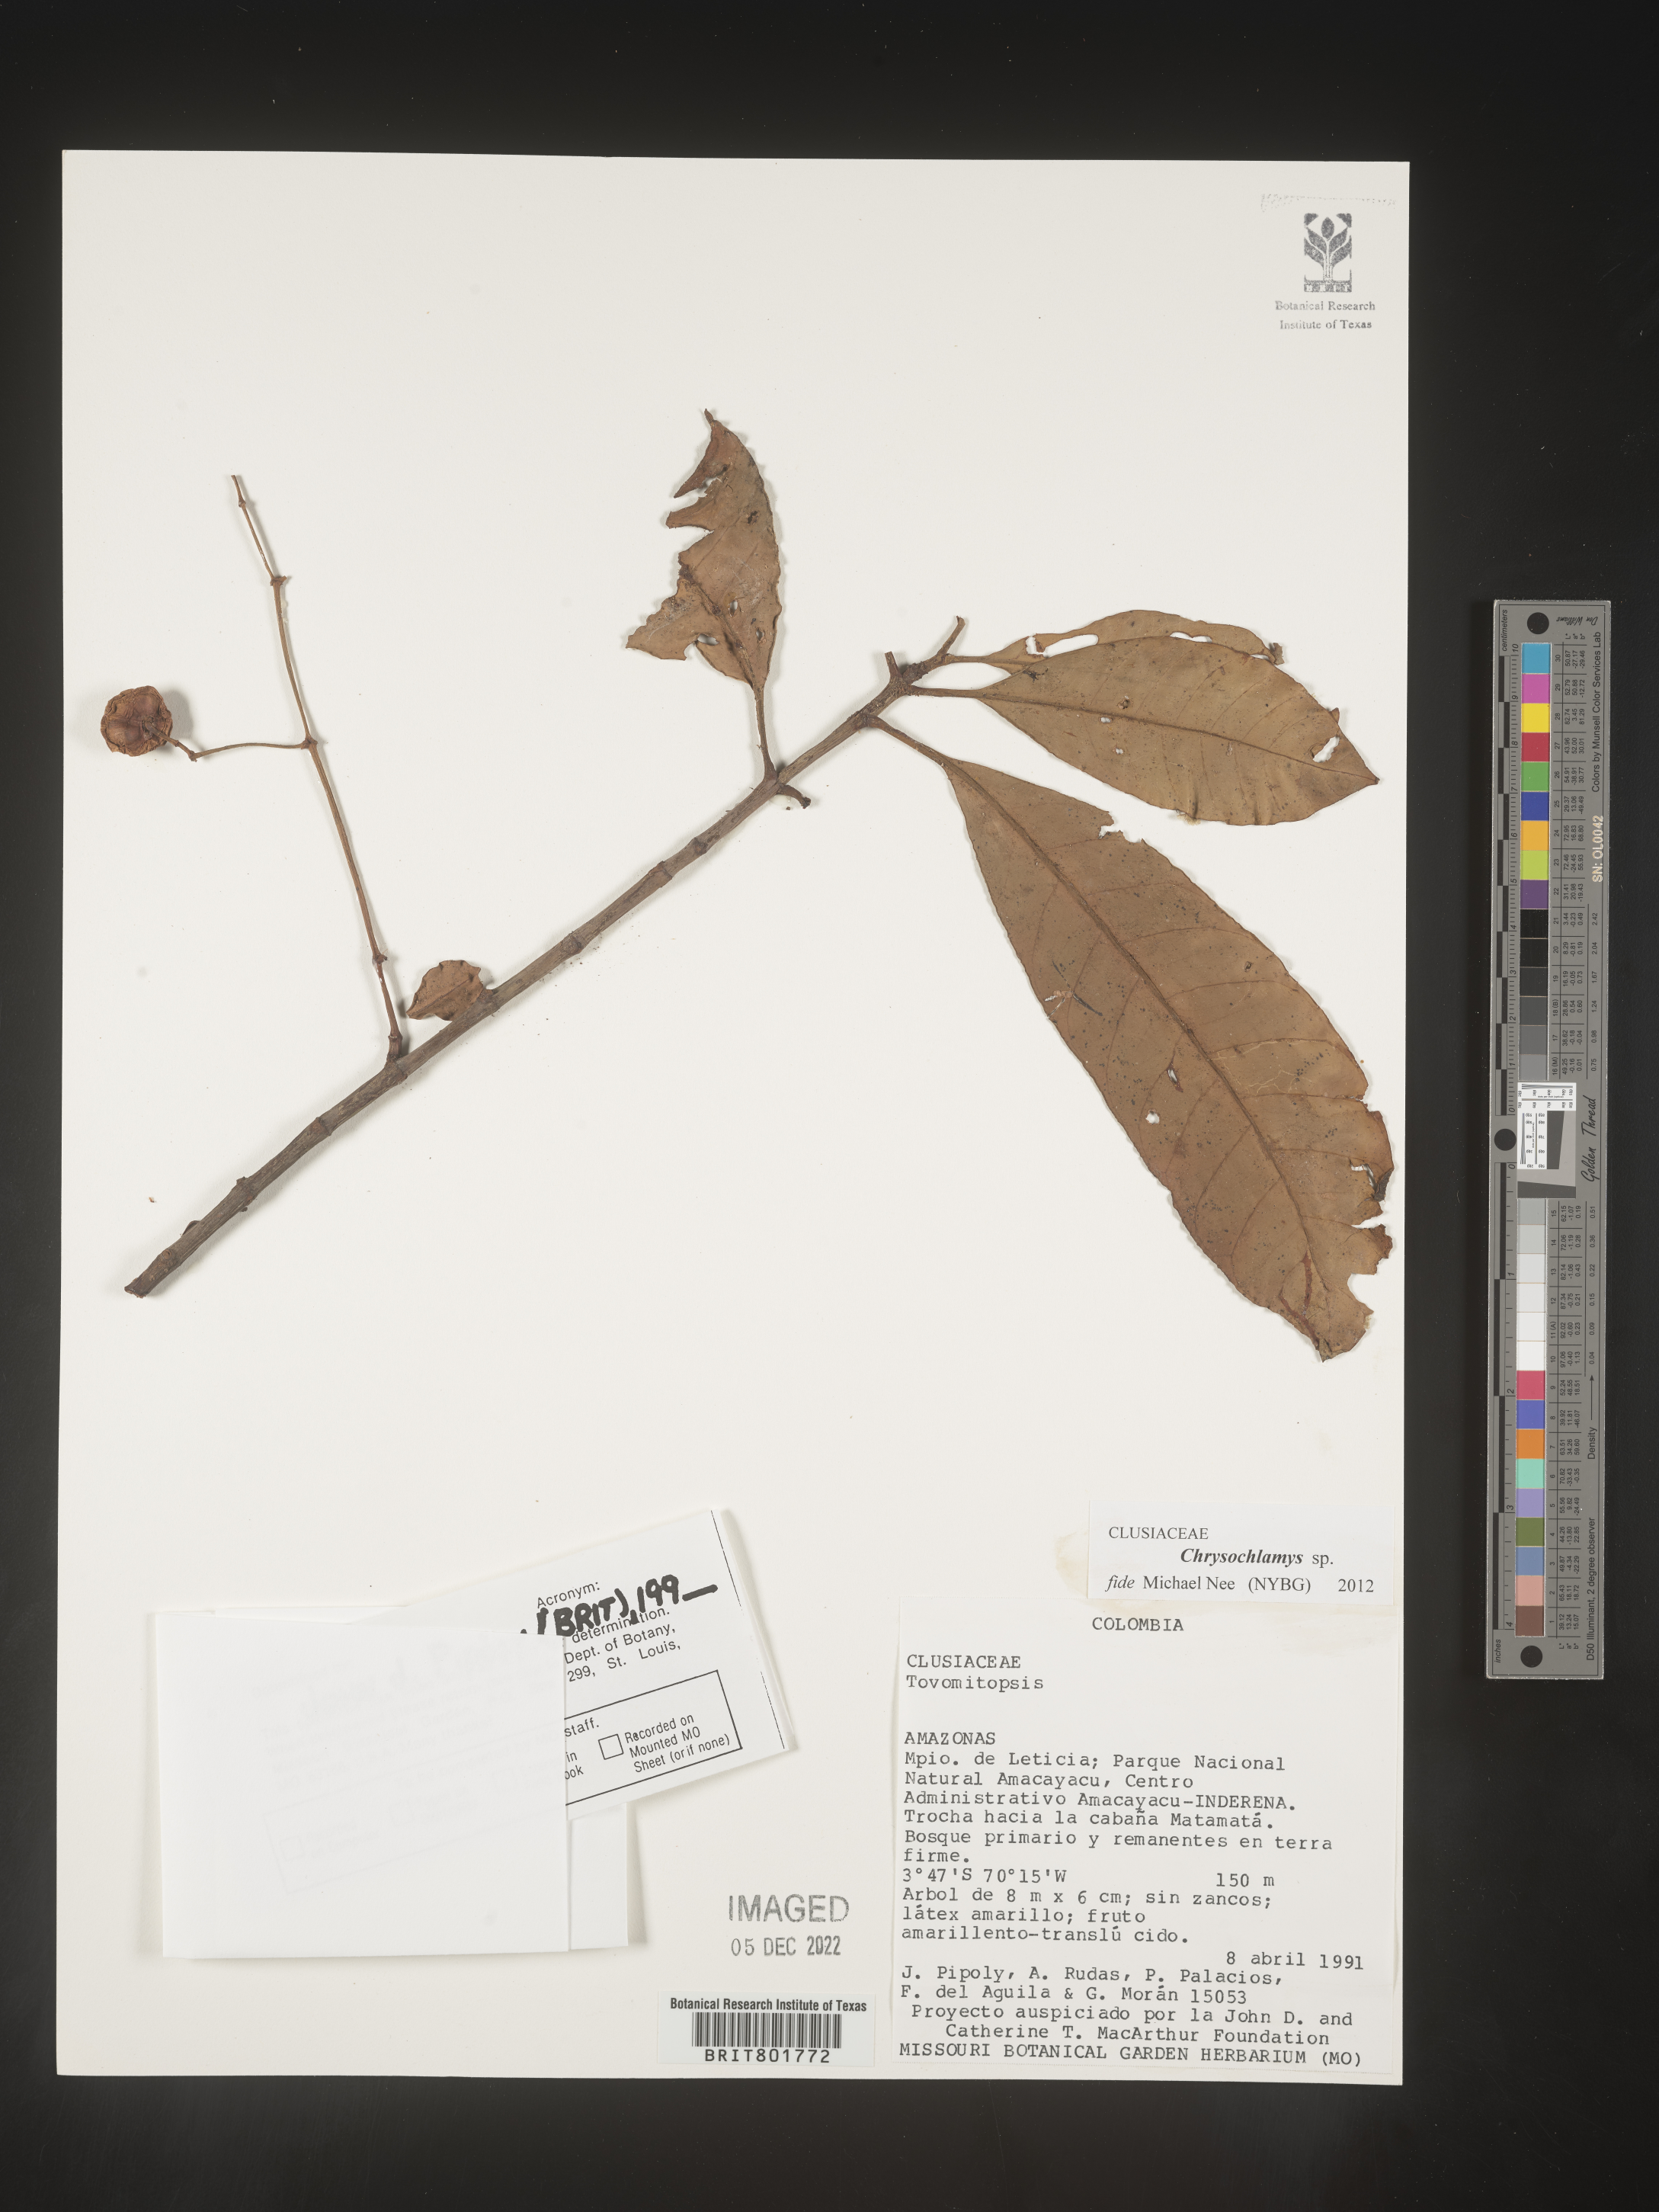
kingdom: Plantae
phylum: Tracheophyta
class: Magnoliopsida
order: Malpighiales
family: Clusiaceae
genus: Chrysochlamys
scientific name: Chrysochlamys
